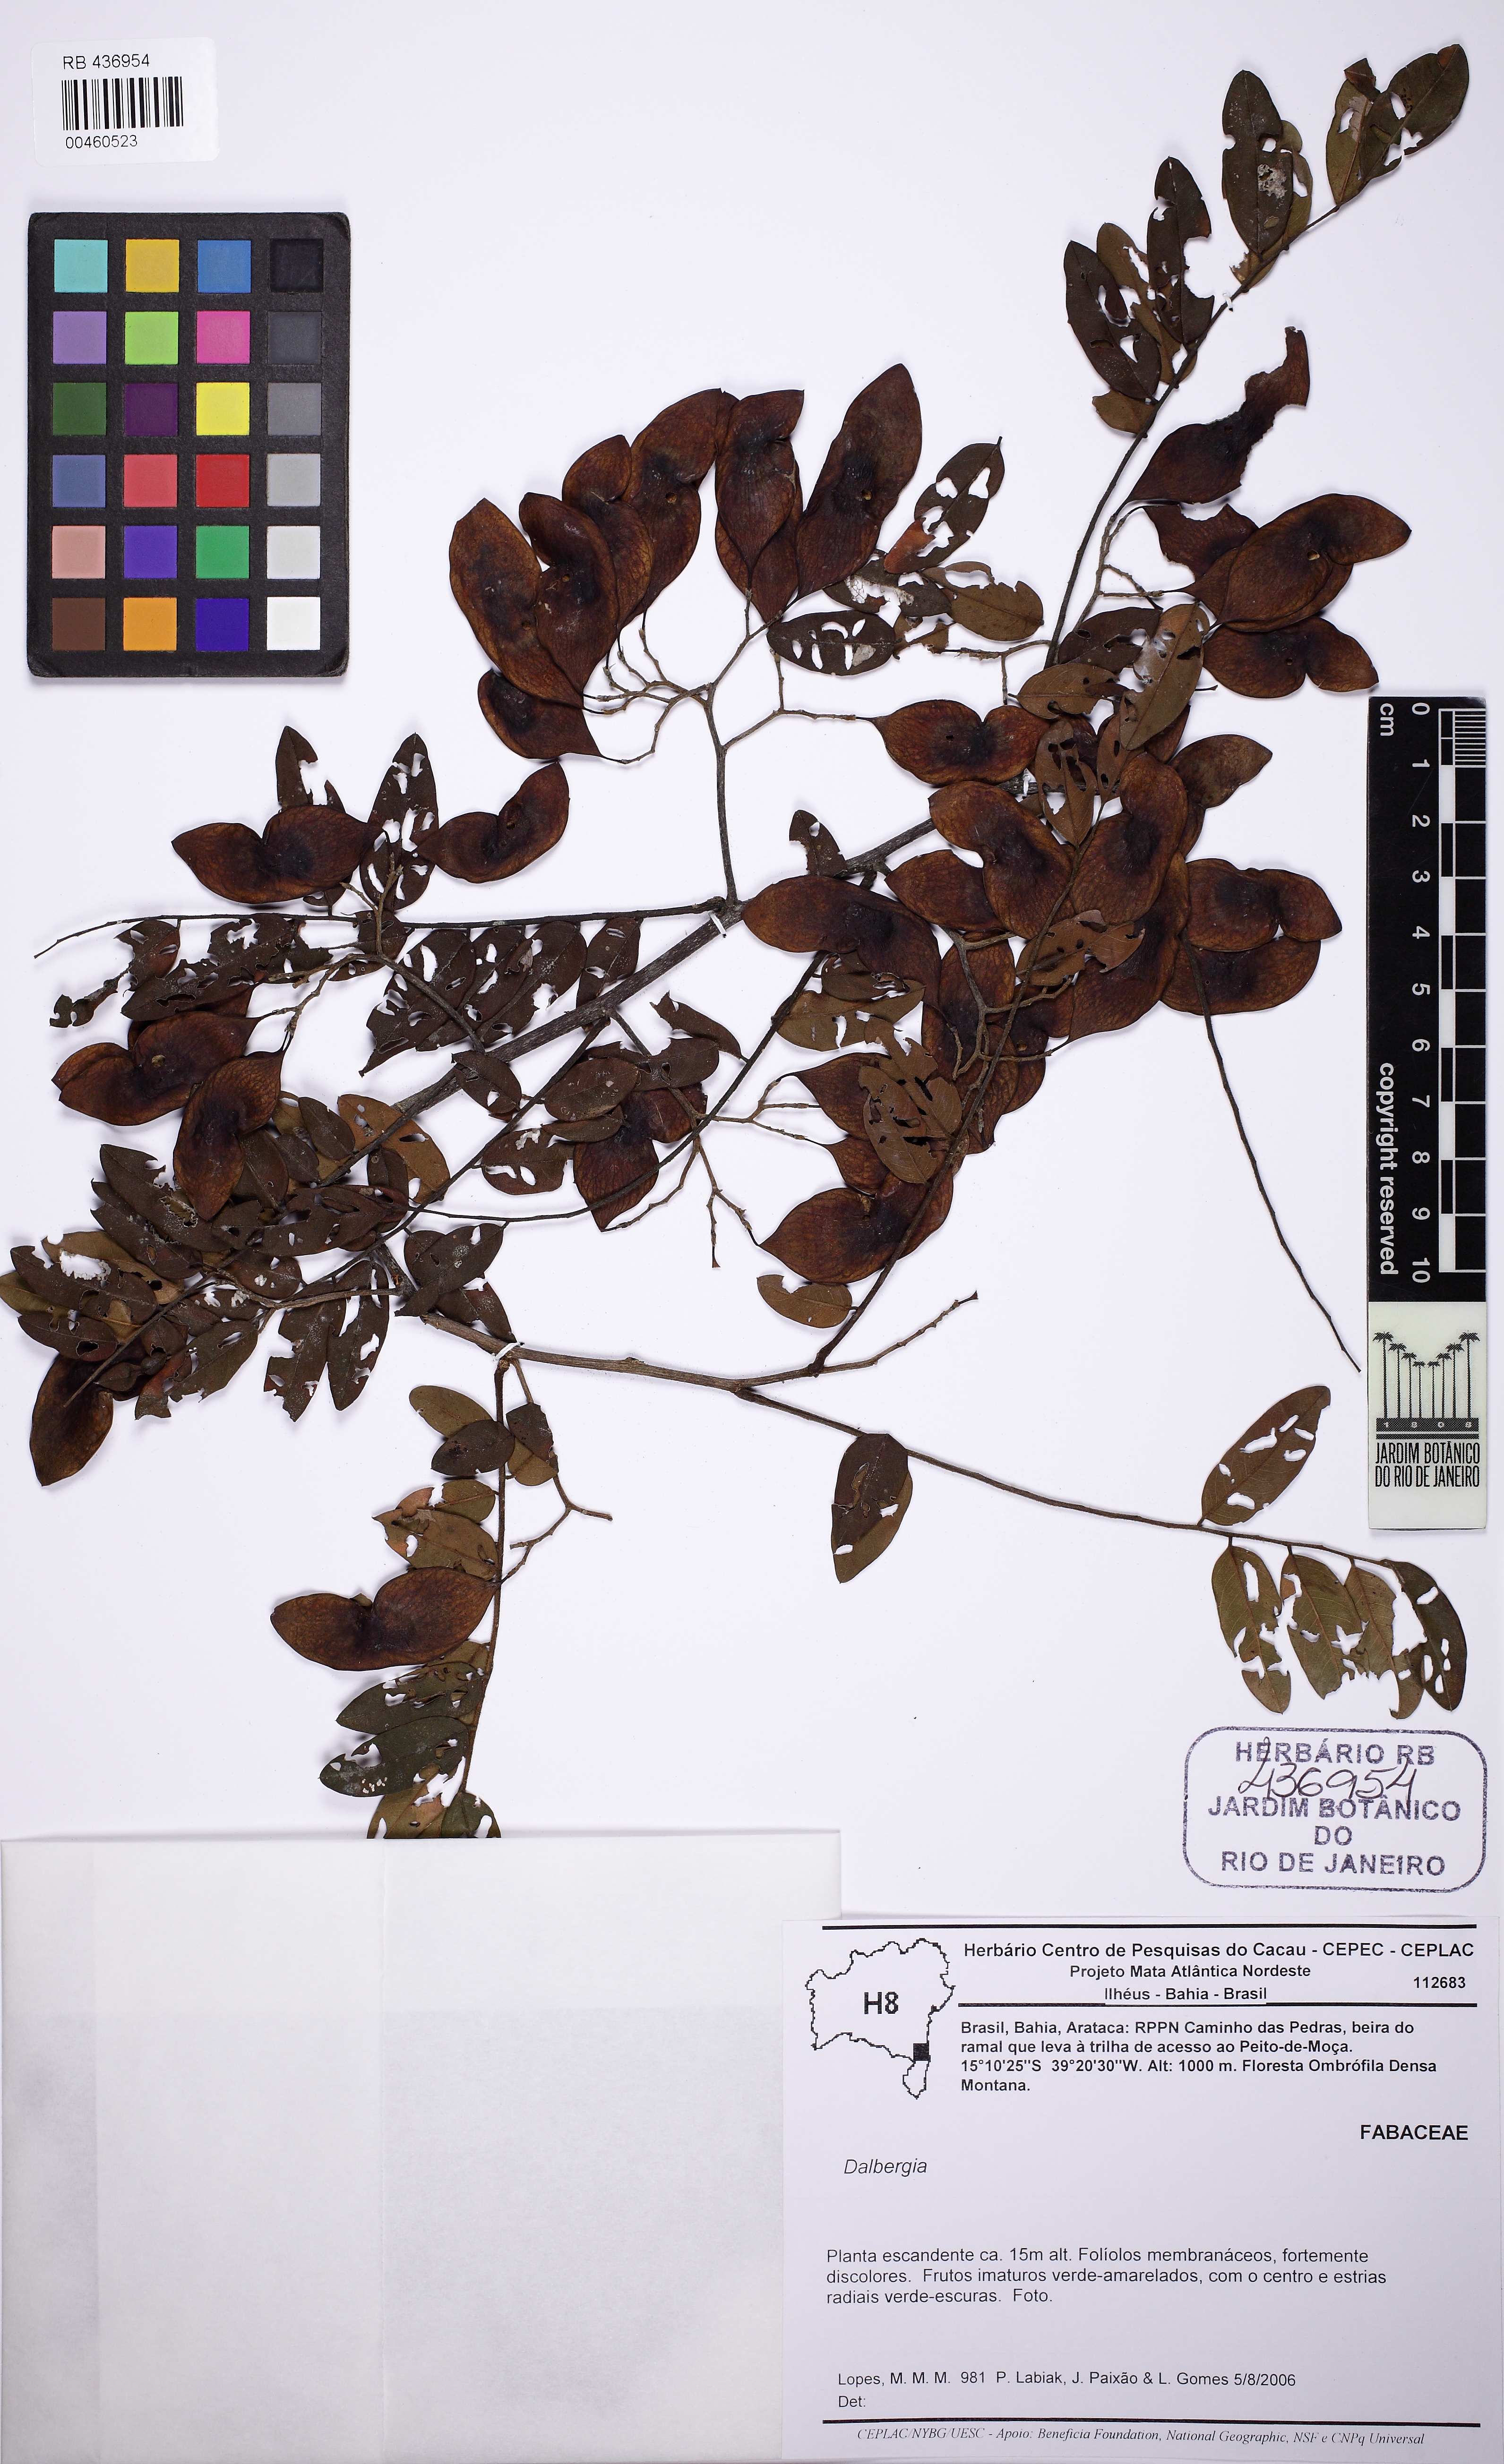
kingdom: Plantae
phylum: Tracheophyta
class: Magnoliopsida
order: Fabales
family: Fabaceae
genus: Dalbergia
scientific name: Dalbergia
